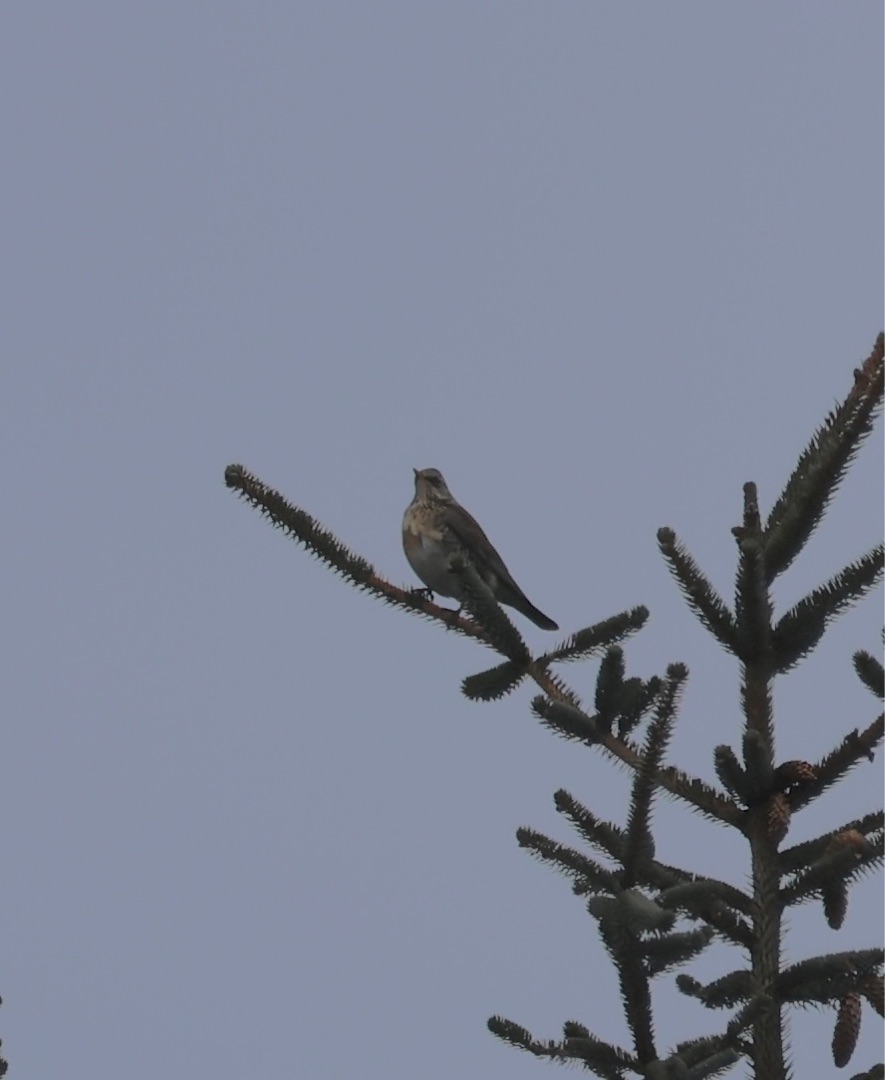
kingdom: Animalia
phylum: Chordata
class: Aves
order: Passeriformes
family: Turdidae
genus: Turdus
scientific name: Turdus pilaris
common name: Sjagger
